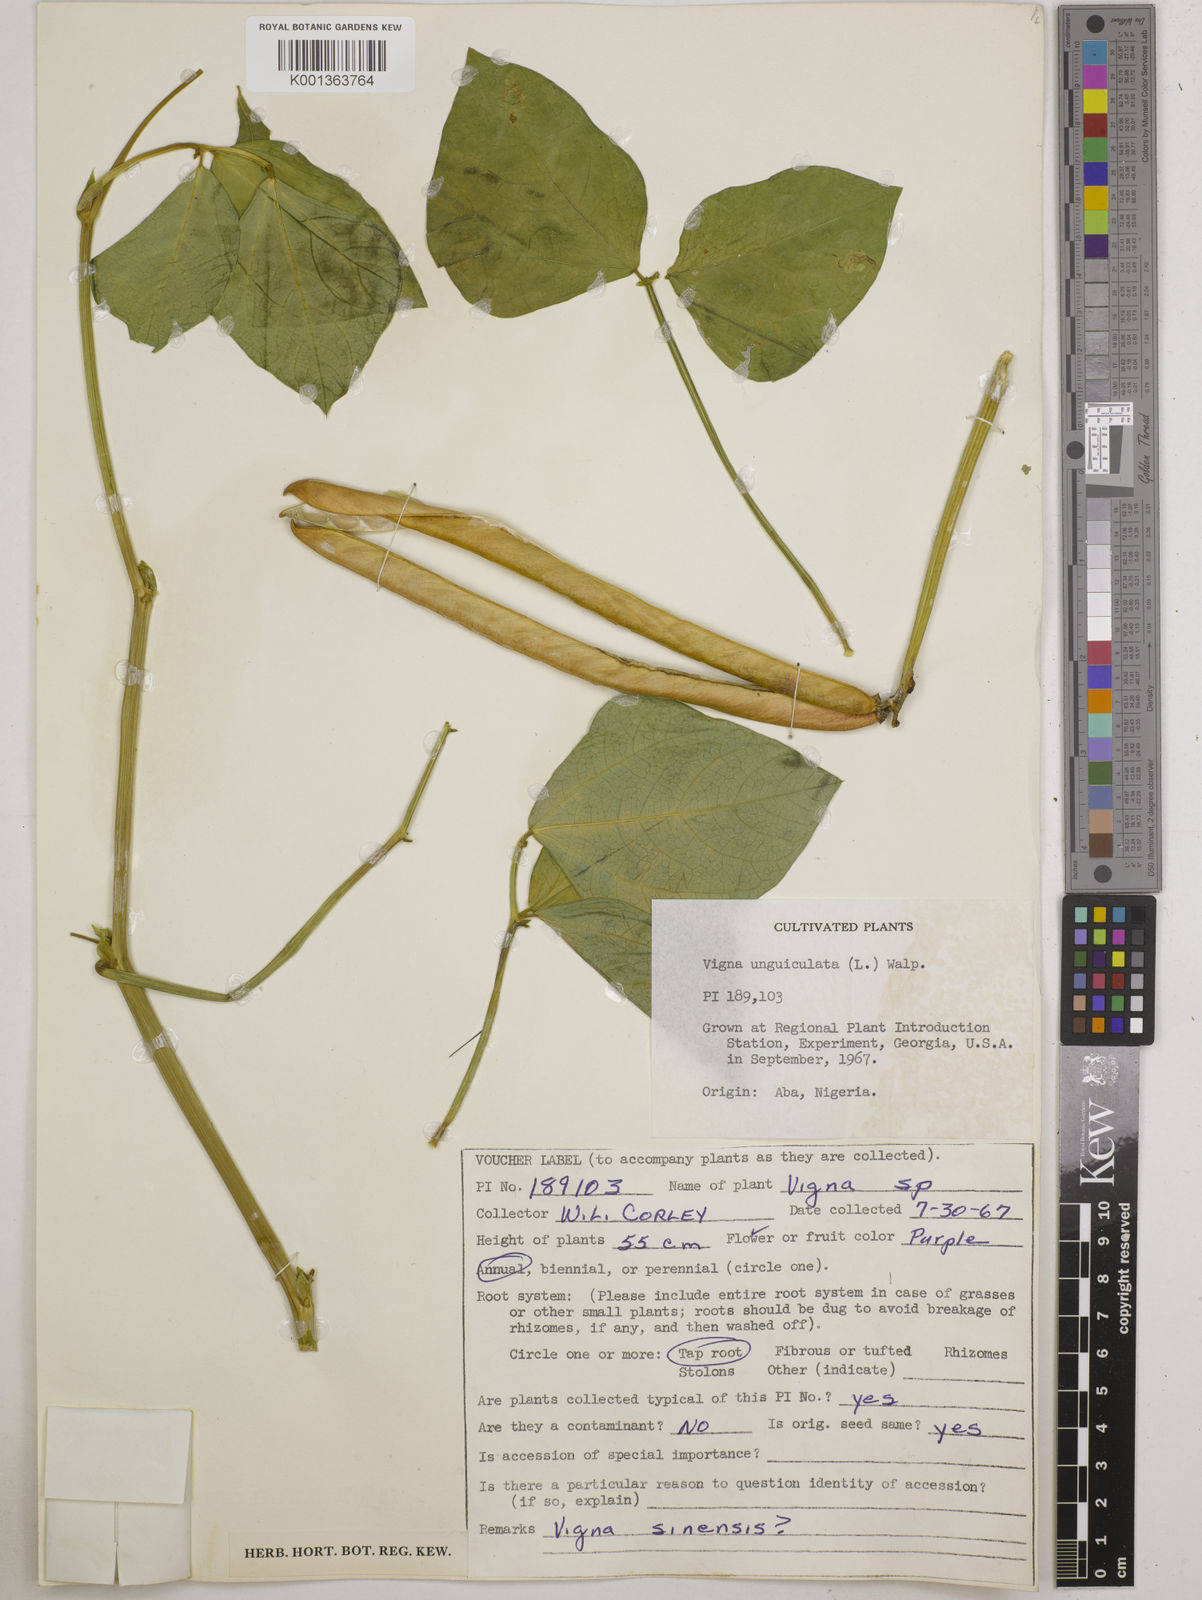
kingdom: Plantae
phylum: Tracheophyta
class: Magnoliopsida
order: Fabales
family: Fabaceae
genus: Vigna
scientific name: Vigna unguiculata
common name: Cowpea
